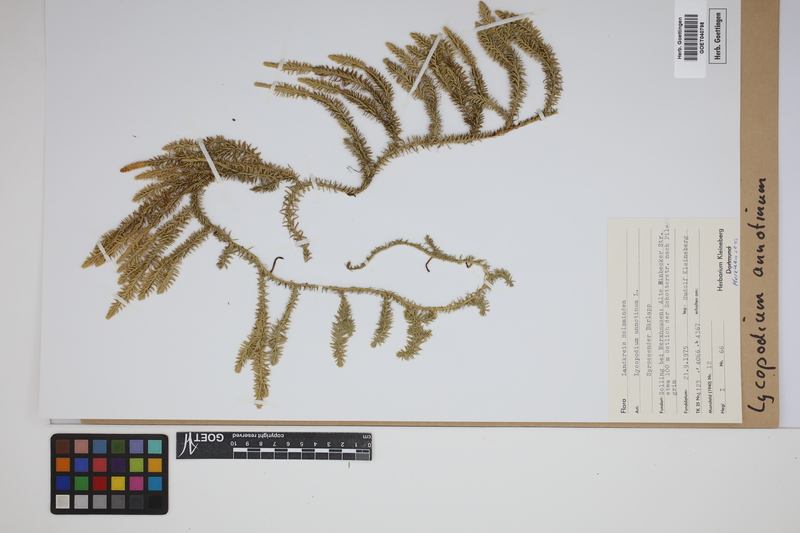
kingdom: Plantae
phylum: Tracheophyta
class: Lycopodiopsida
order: Lycopodiales
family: Lycopodiaceae
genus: Spinulum
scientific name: Spinulum annotinum
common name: Interrupted club-moss
